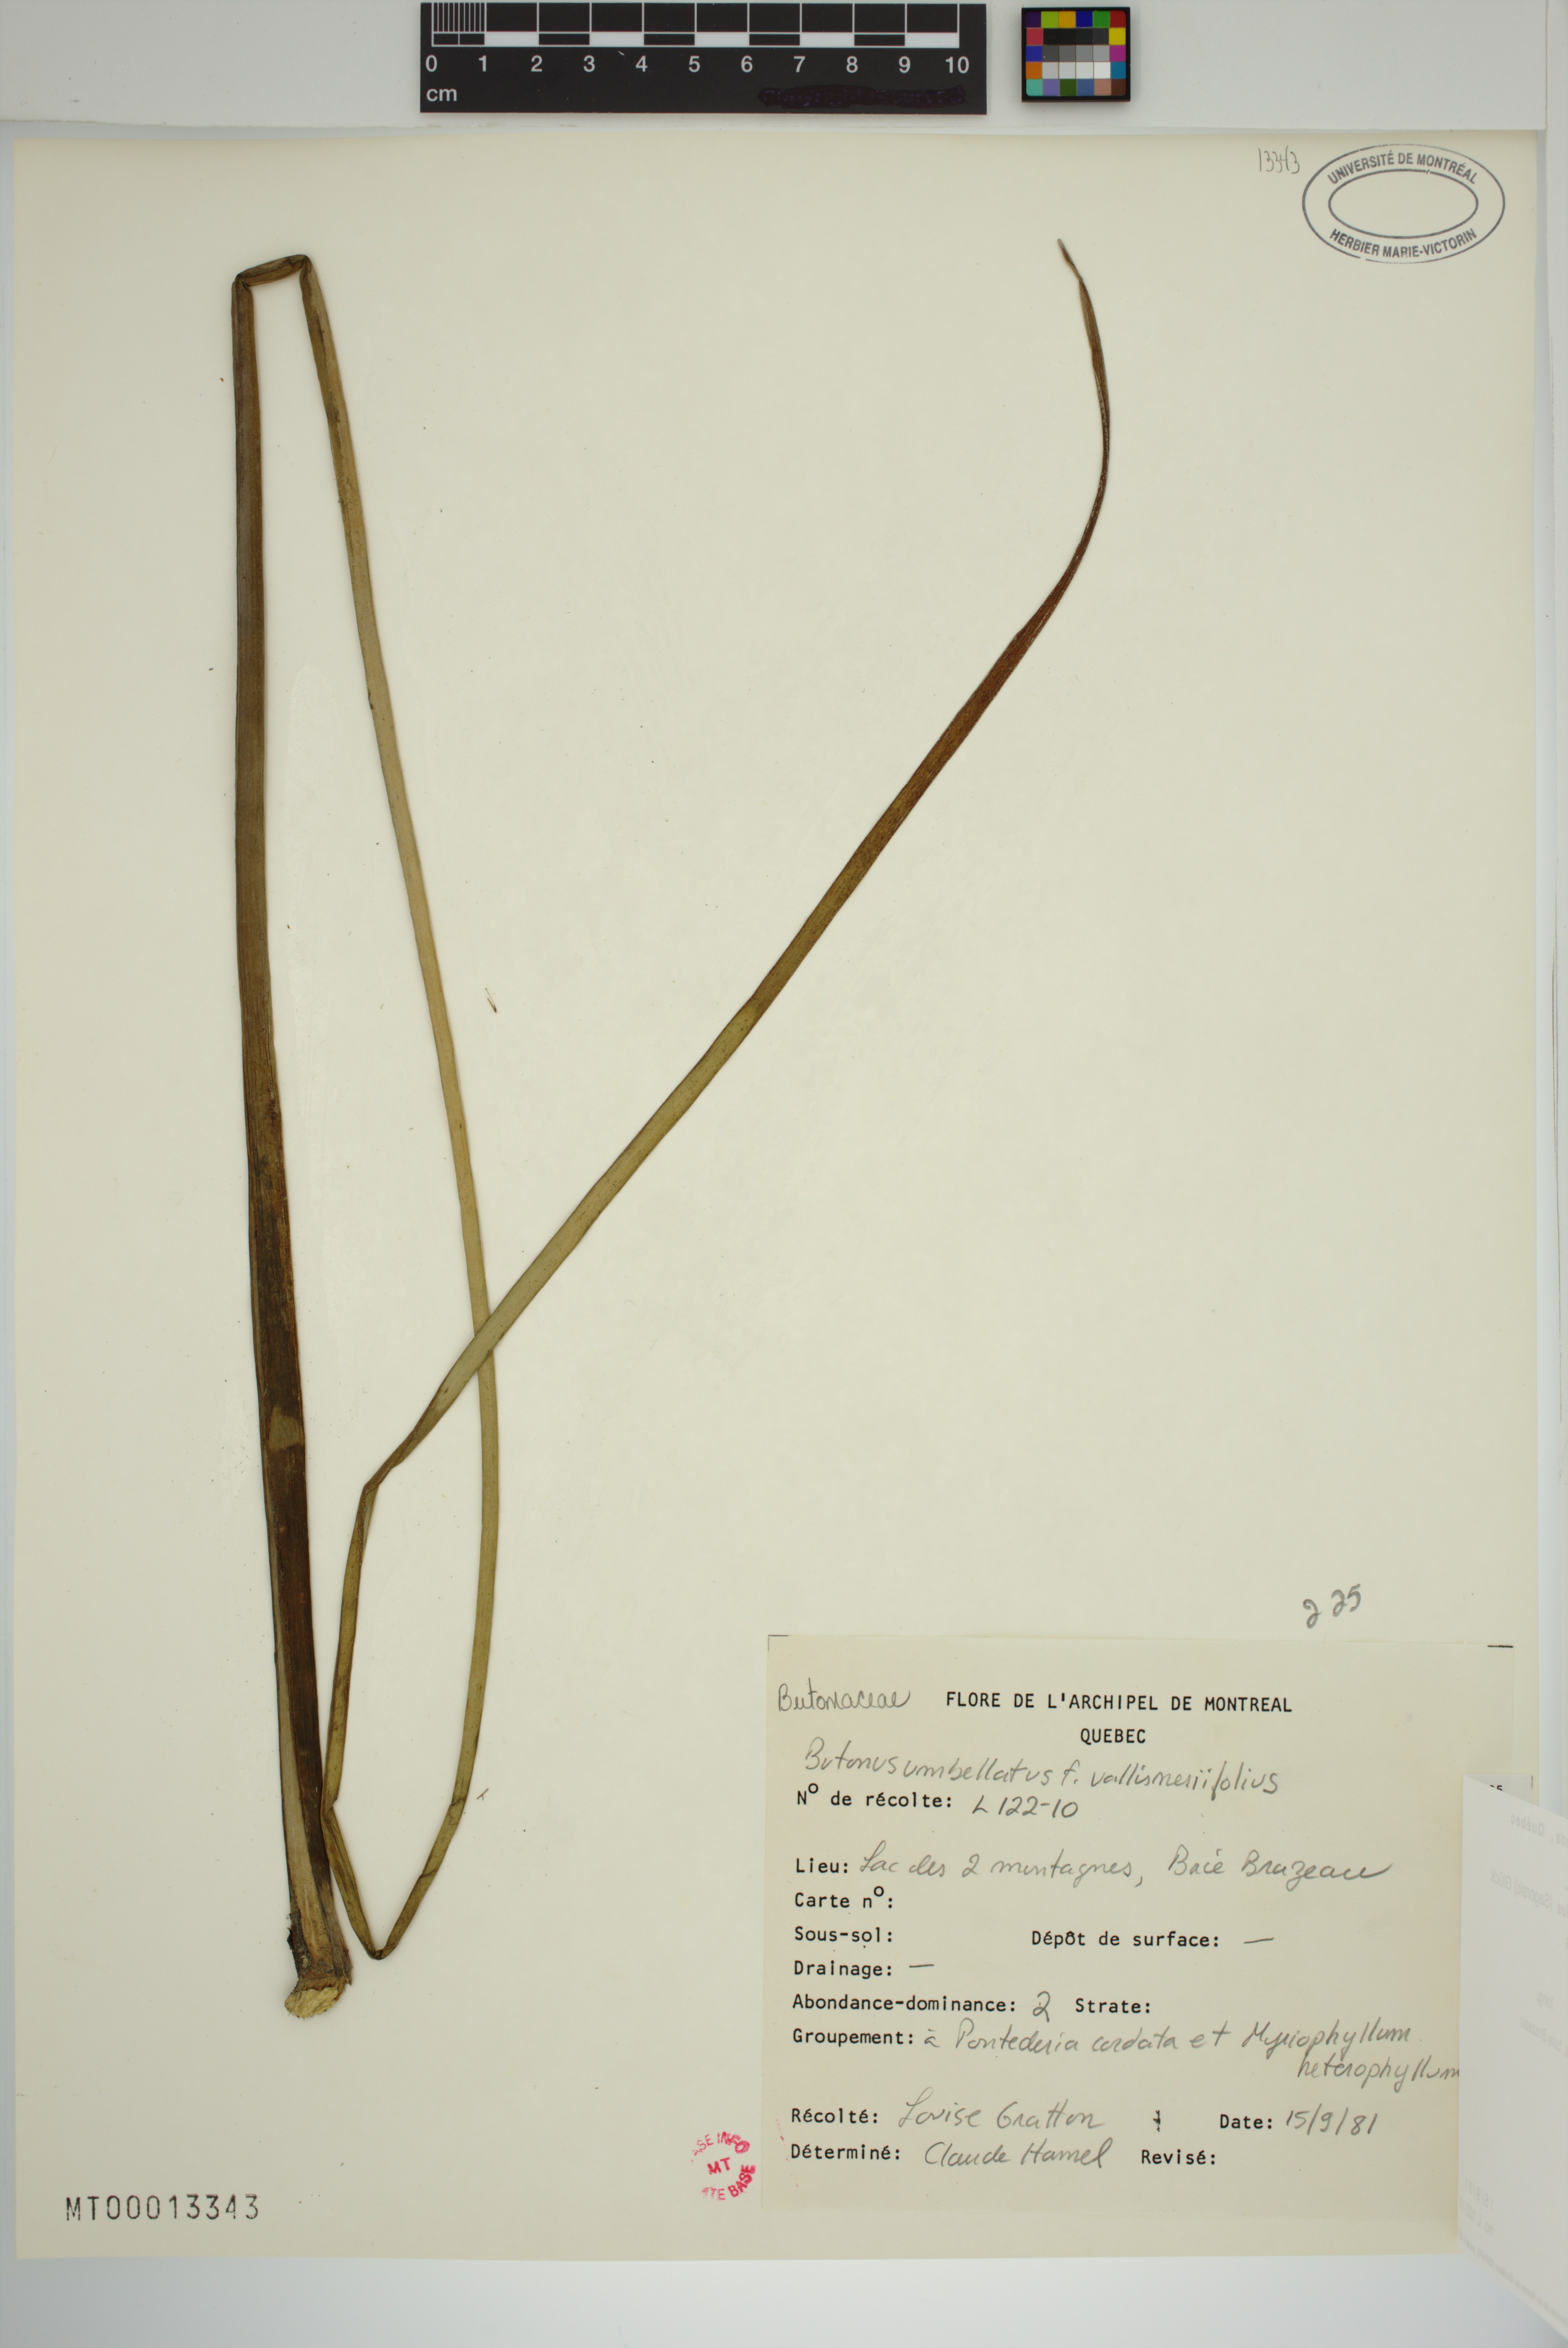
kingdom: Plantae
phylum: Tracheophyta
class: Liliopsida
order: Alismatales
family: Butomaceae
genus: Butomus
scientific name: Butomus umbellatus
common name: Flowering-rush
